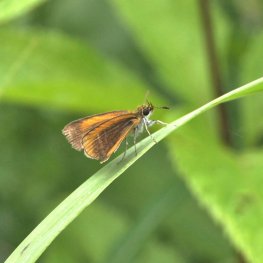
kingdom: Animalia
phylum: Arthropoda
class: Insecta
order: Lepidoptera
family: Hesperiidae
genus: Ancyloxypha
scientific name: Ancyloxypha numitor
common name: Least Skipper
